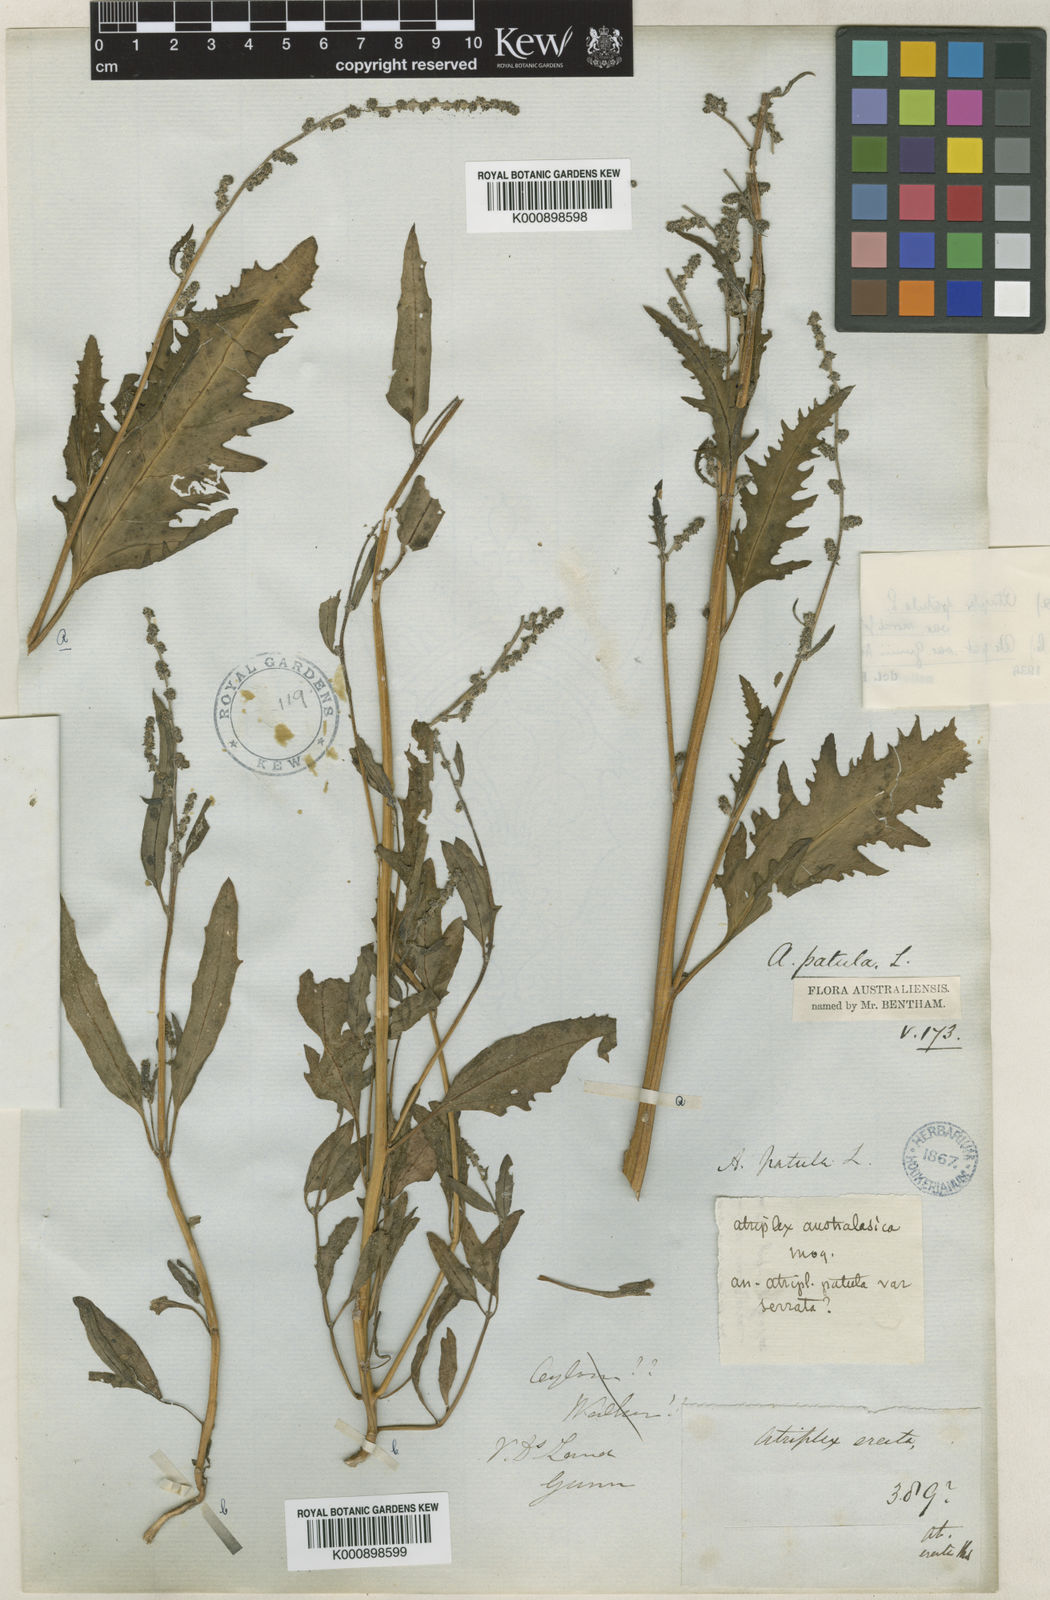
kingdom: Plantae
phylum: Tracheophyta
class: Magnoliopsida
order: Caryophyllales
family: Amaranthaceae
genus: Atriplex
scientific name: Atriplex australasica
